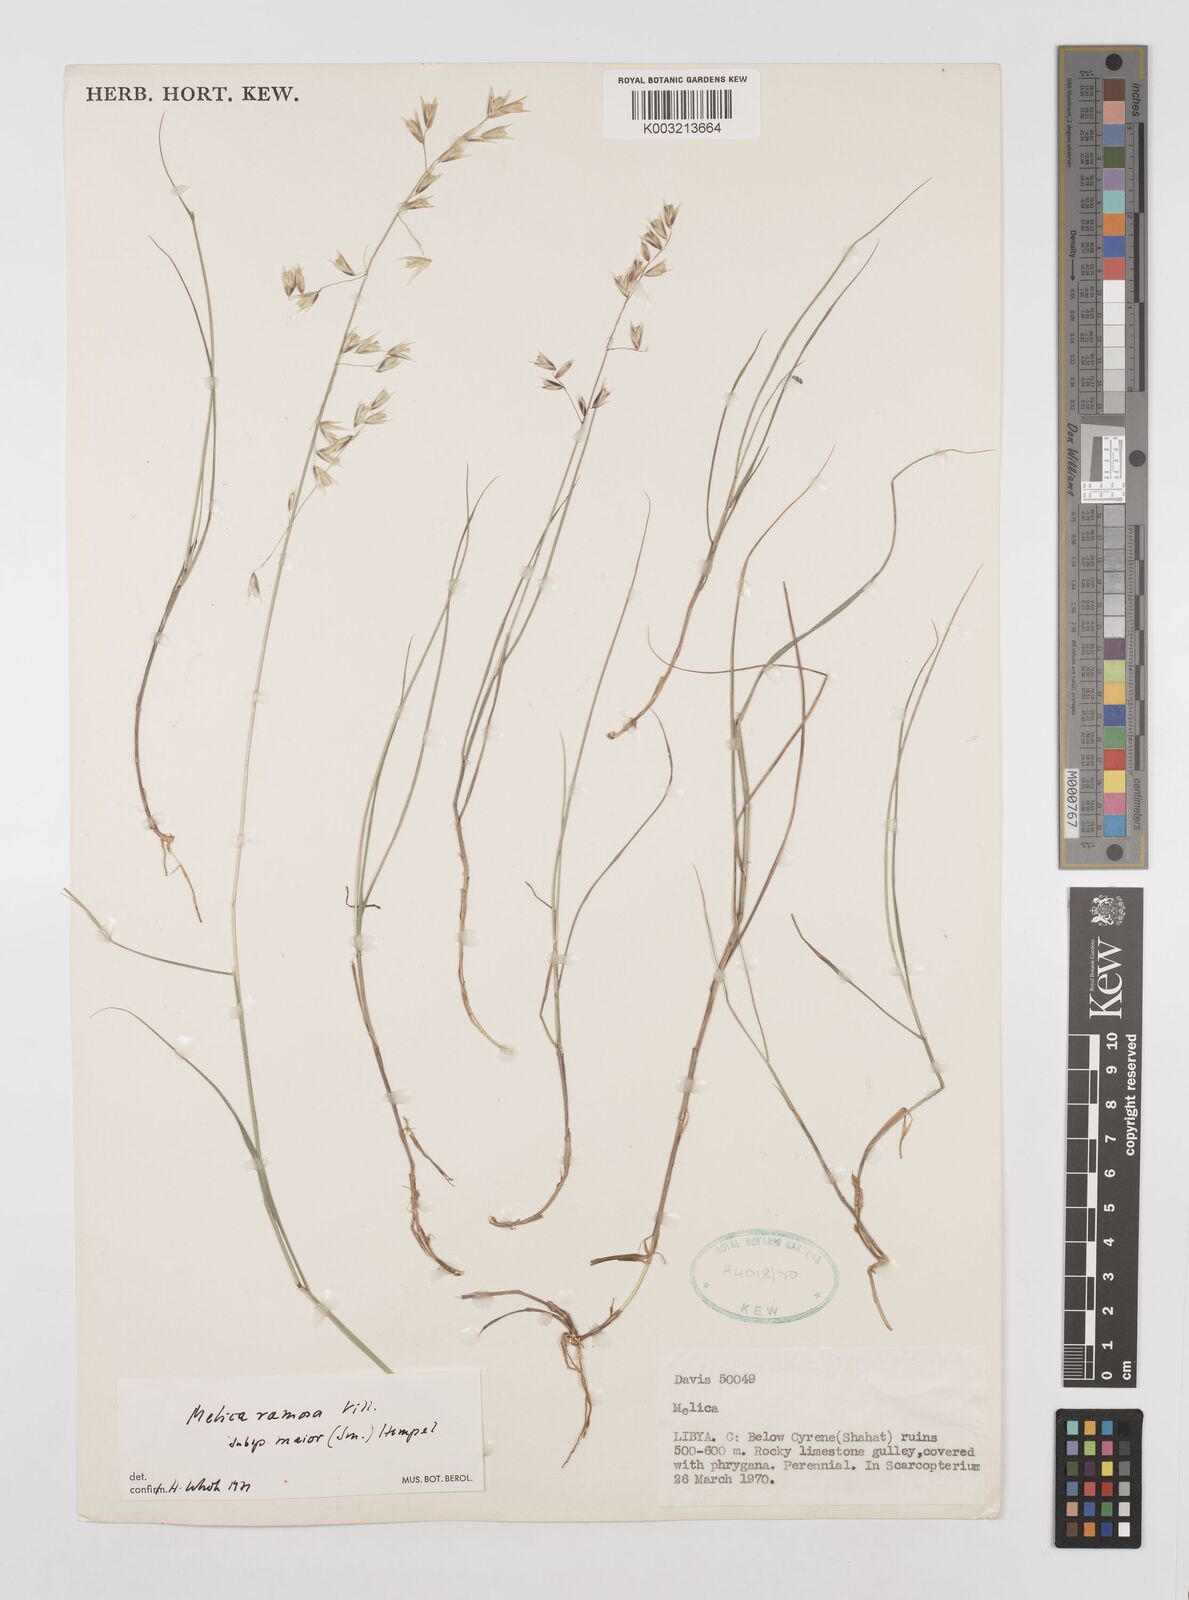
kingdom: Plantae
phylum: Tracheophyta
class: Liliopsida
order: Poales
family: Poaceae
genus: Melica
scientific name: Melica minuta
